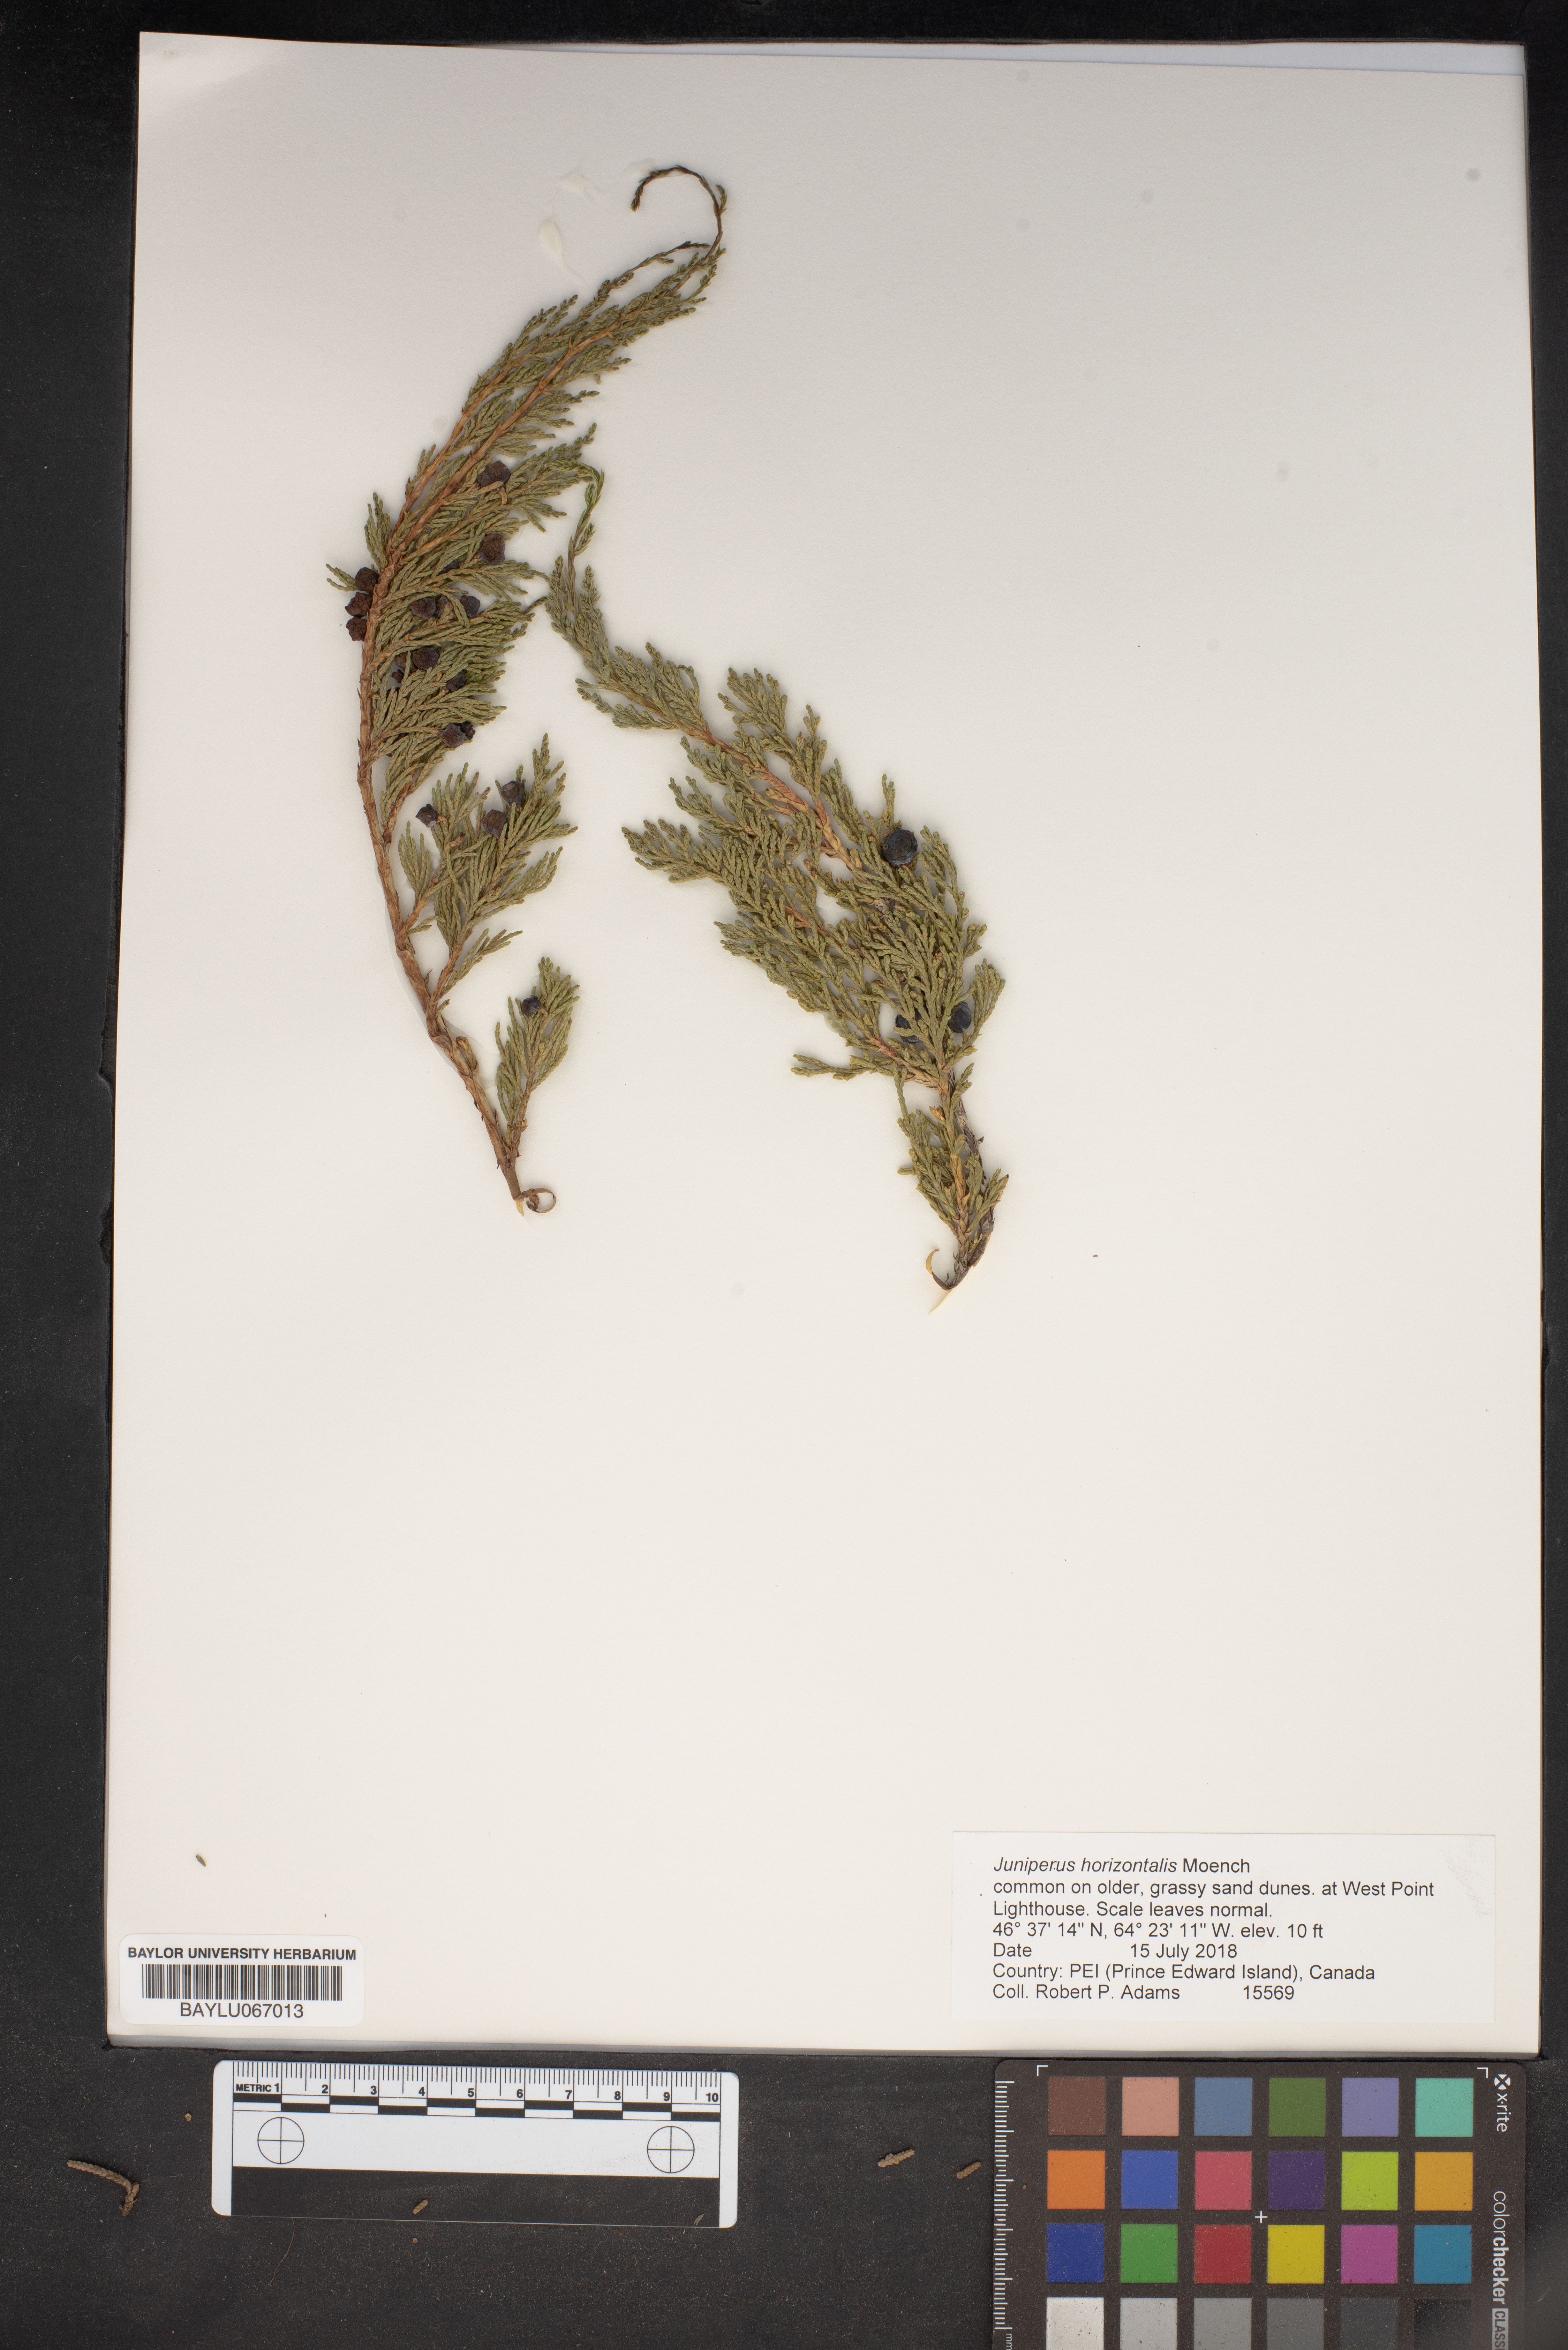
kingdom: Plantae
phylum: Tracheophyta
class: Pinopsida
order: Pinales
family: Cupressaceae
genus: Juniperus
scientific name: Juniperus horizontalis
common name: Creeping juniper
